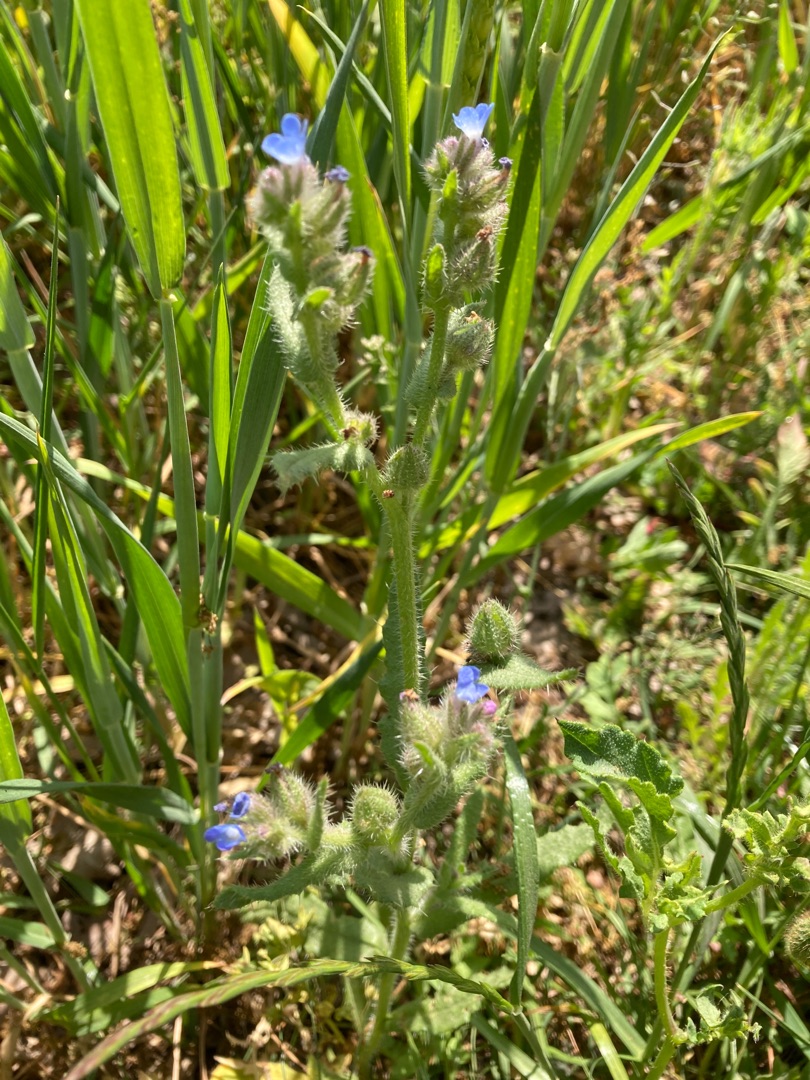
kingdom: Plantae
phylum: Tracheophyta
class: Magnoliopsida
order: Boraginales
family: Boraginaceae
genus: Lycopsis
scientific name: Lycopsis arvensis
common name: Krumhals
